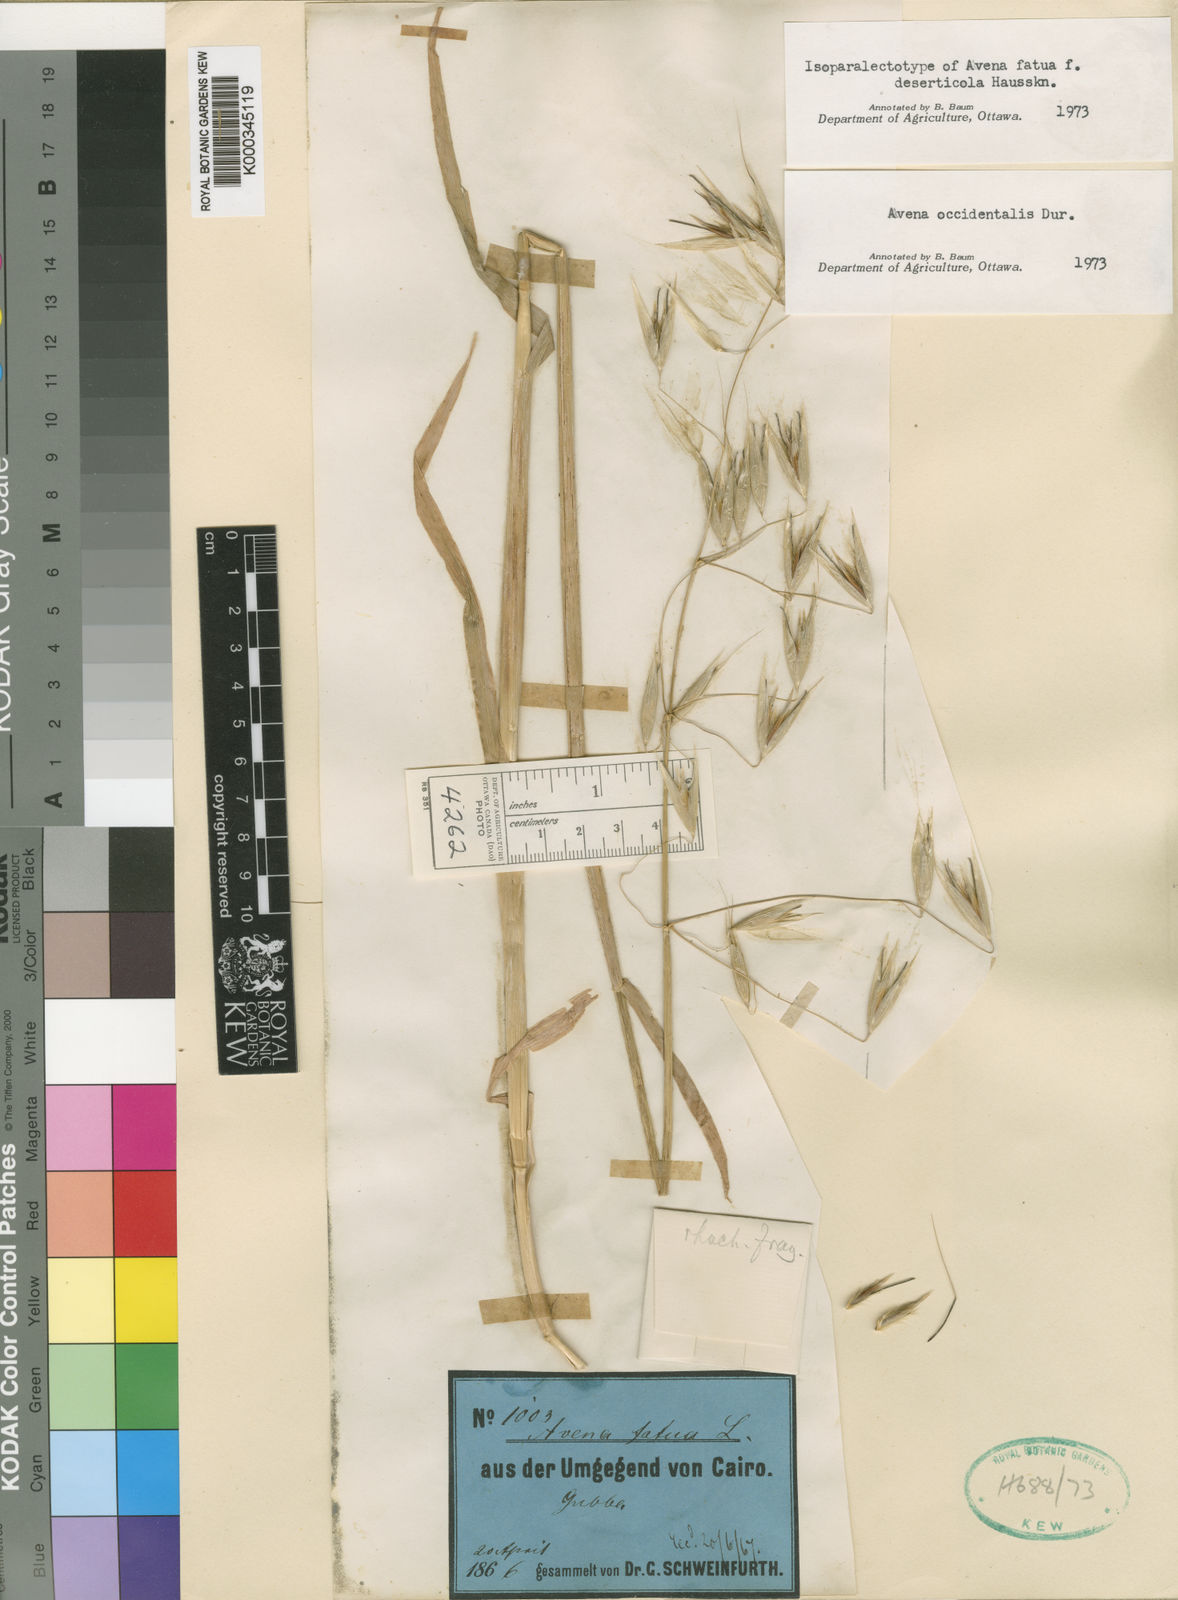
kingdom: Plantae
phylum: Tracheophyta
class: Liliopsida
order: Poales
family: Poaceae
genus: Avena
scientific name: Avena fatua
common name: Wild oat
